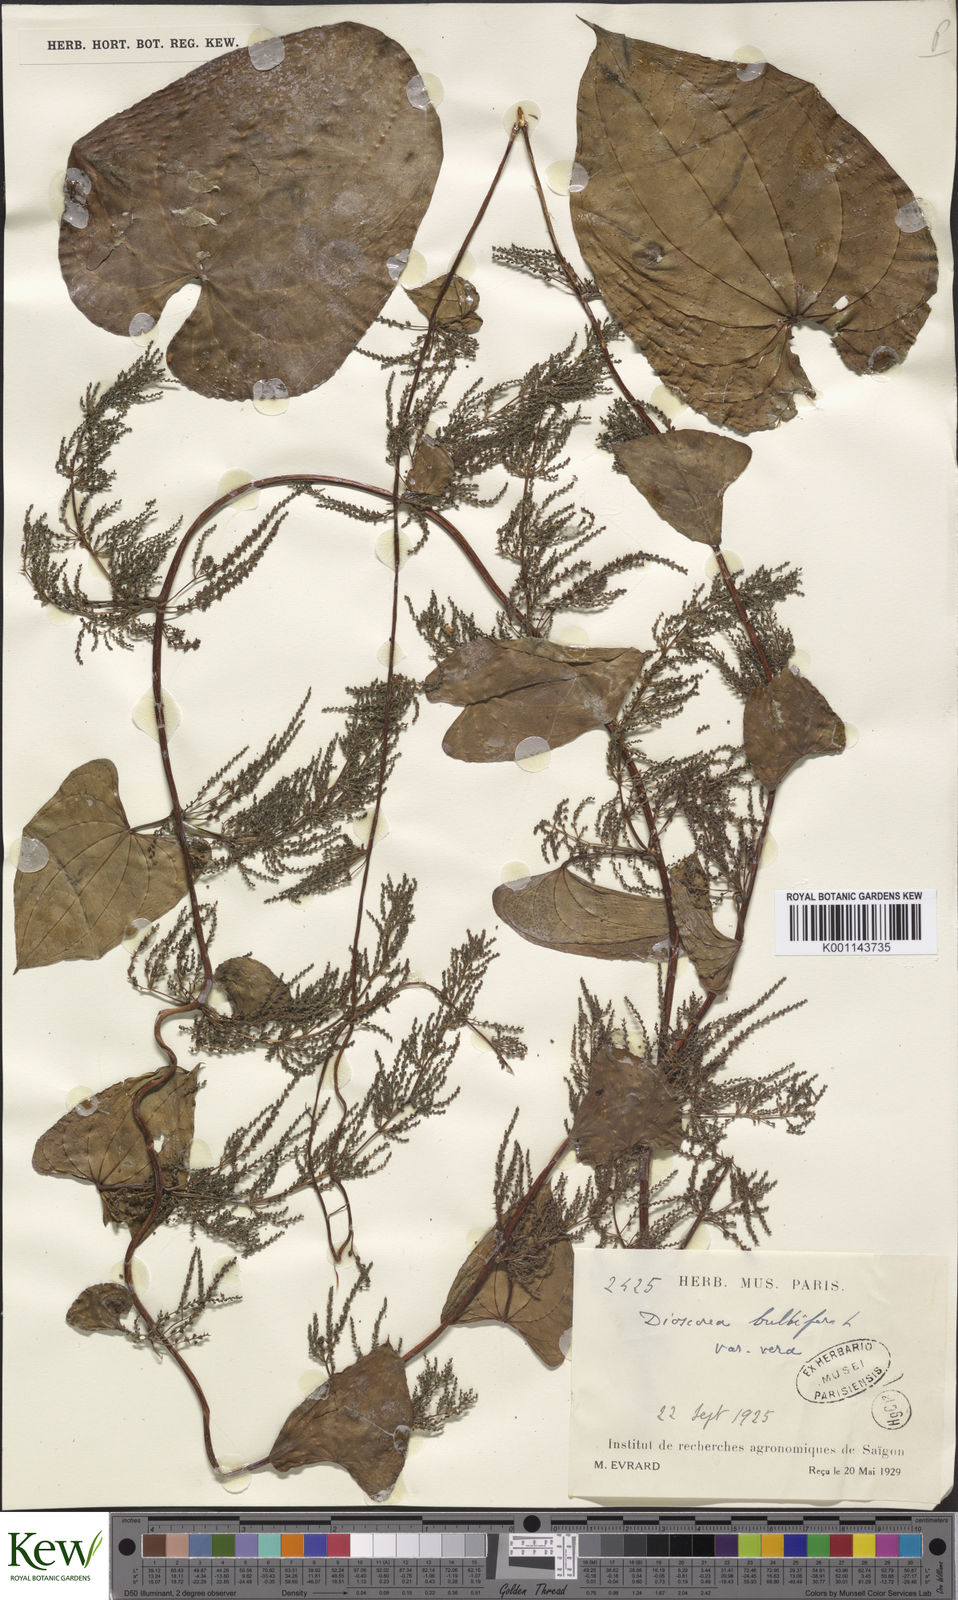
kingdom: Plantae
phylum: Tracheophyta
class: Liliopsida
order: Dioscoreales
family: Dioscoreaceae
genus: Dioscorea
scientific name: Dioscorea bulbifera
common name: Air yam
